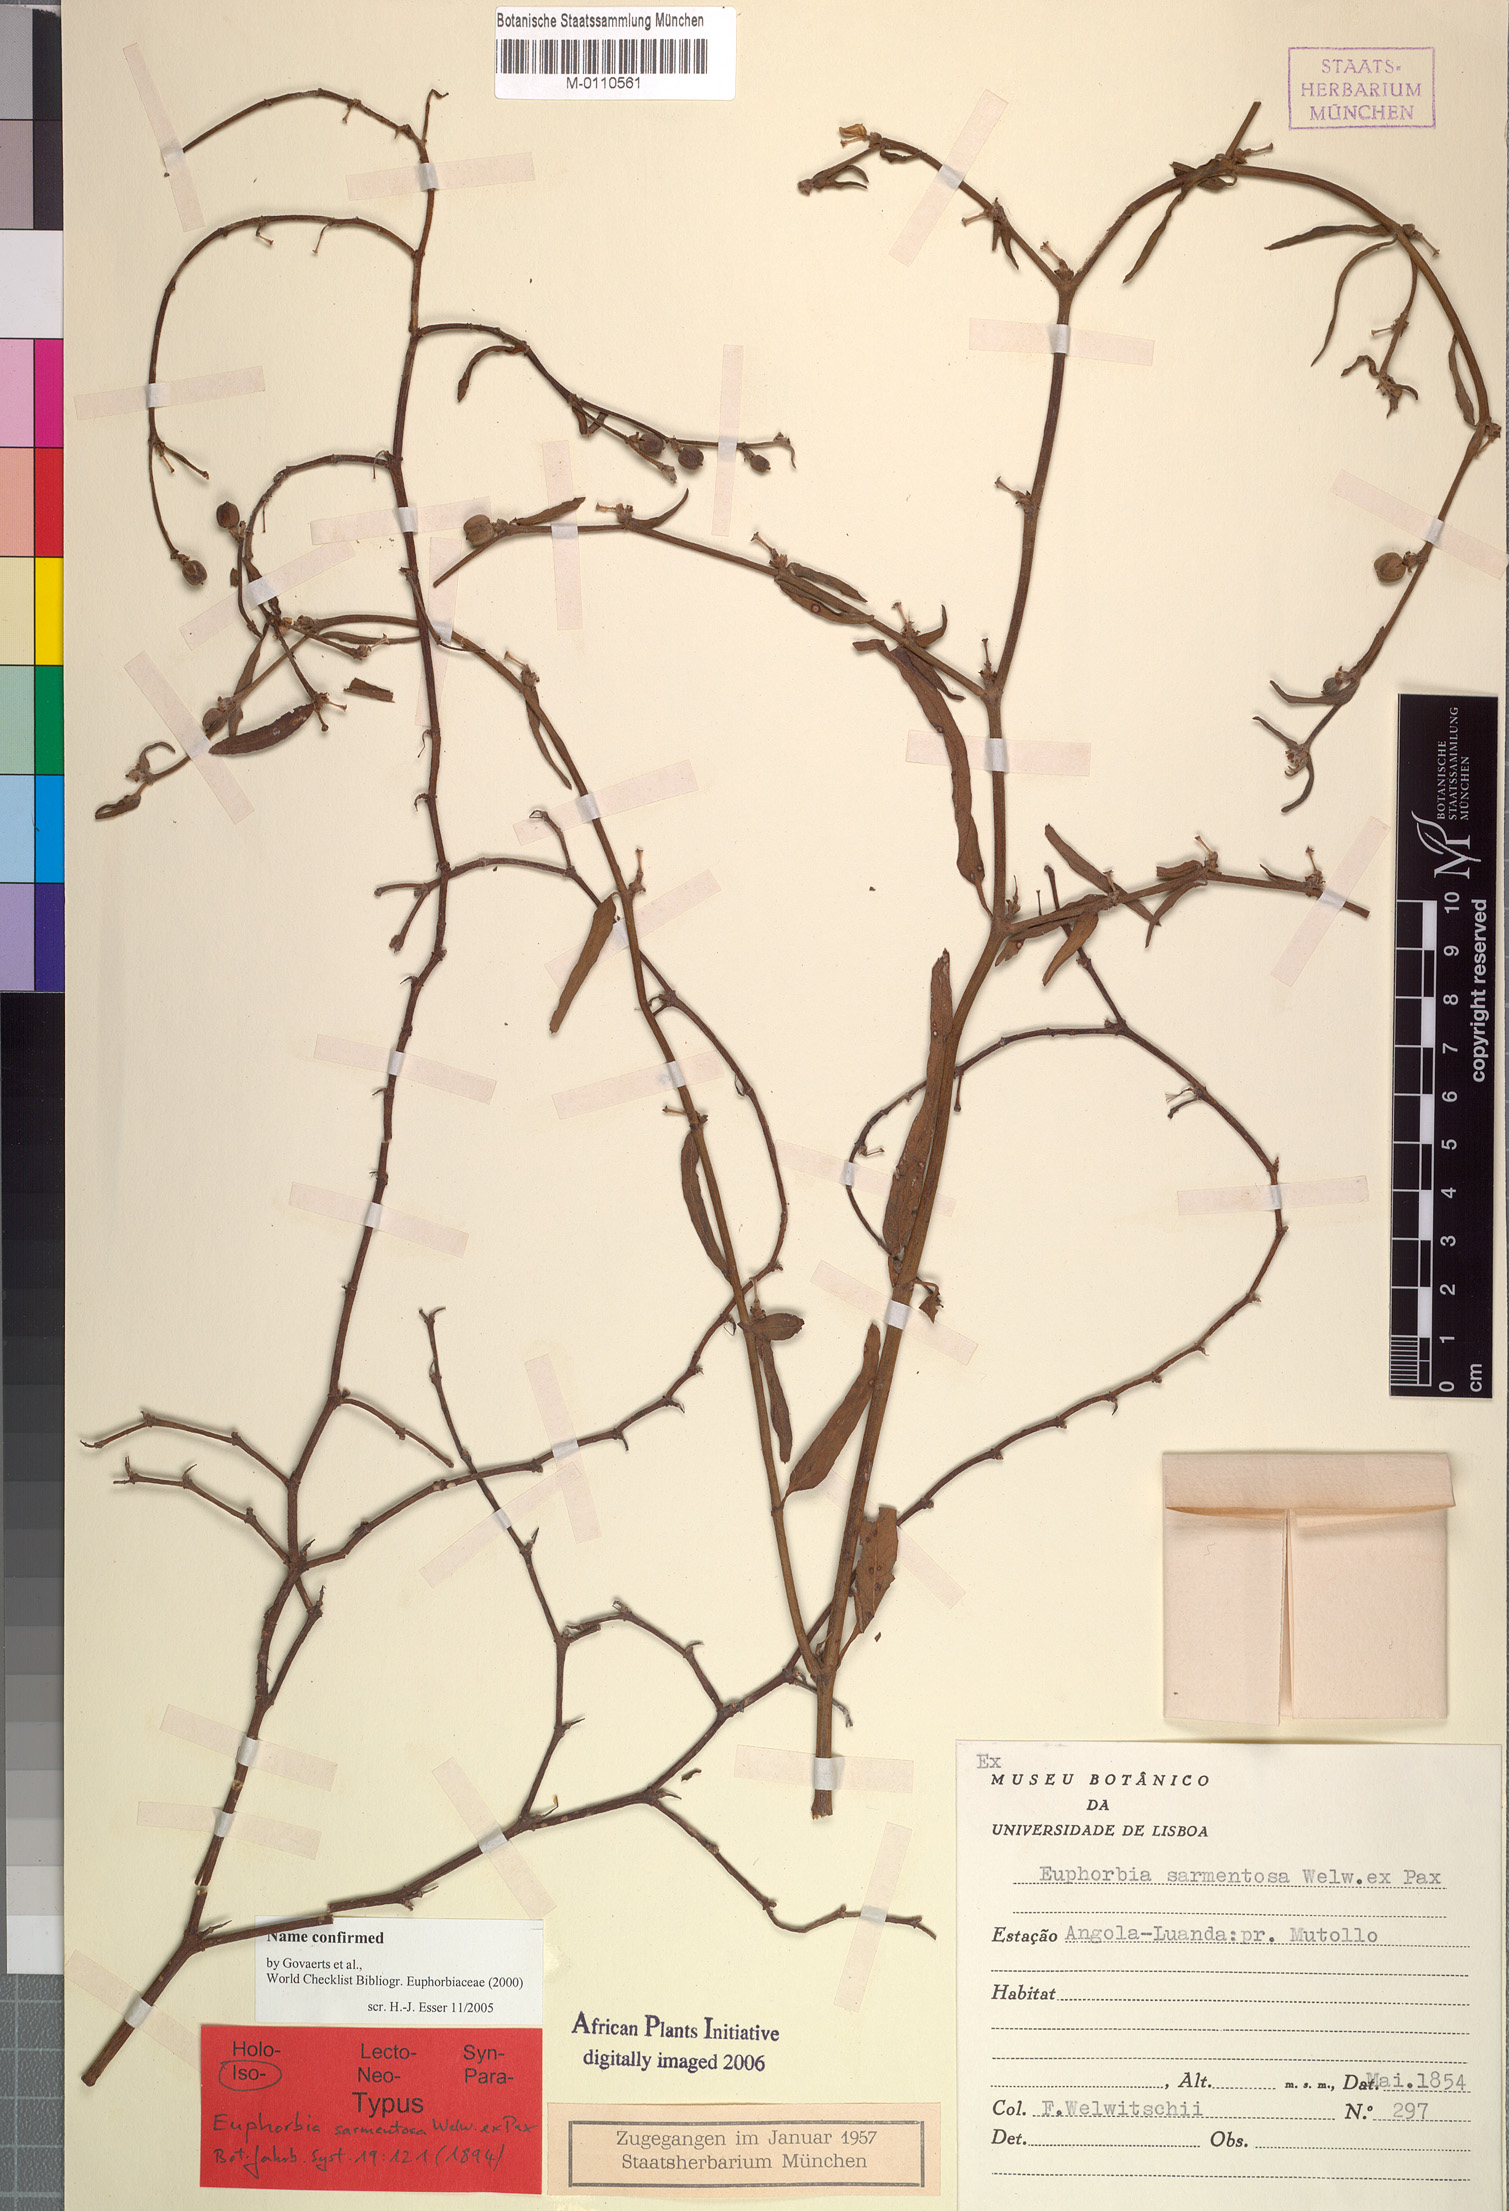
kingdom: Plantae
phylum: Tracheophyta
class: Magnoliopsida
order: Malpighiales
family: Euphorbiaceae
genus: Euphorbia
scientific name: Euphorbia sarmentosa
